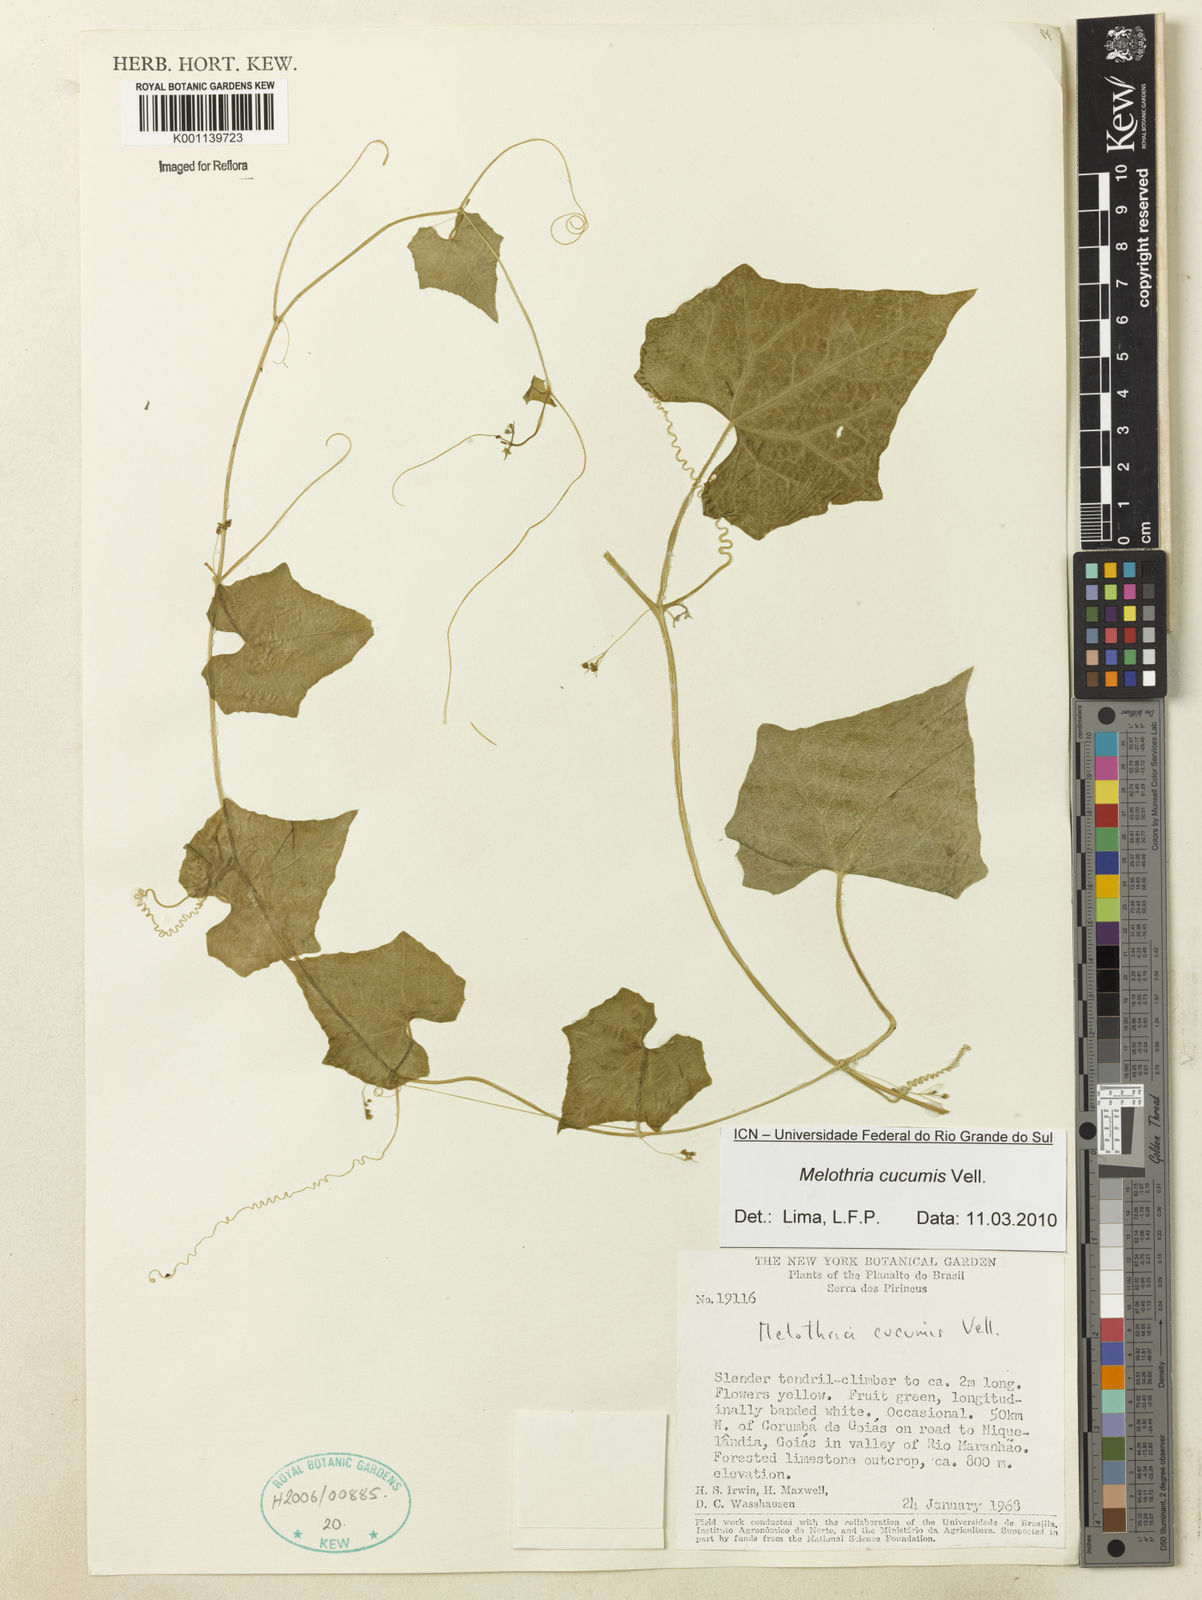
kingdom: Plantae
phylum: Tracheophyta
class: Magnoliopsida
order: Cucurbitales
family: Cucurbitaceae
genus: Melothria
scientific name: Melothria cucumis
